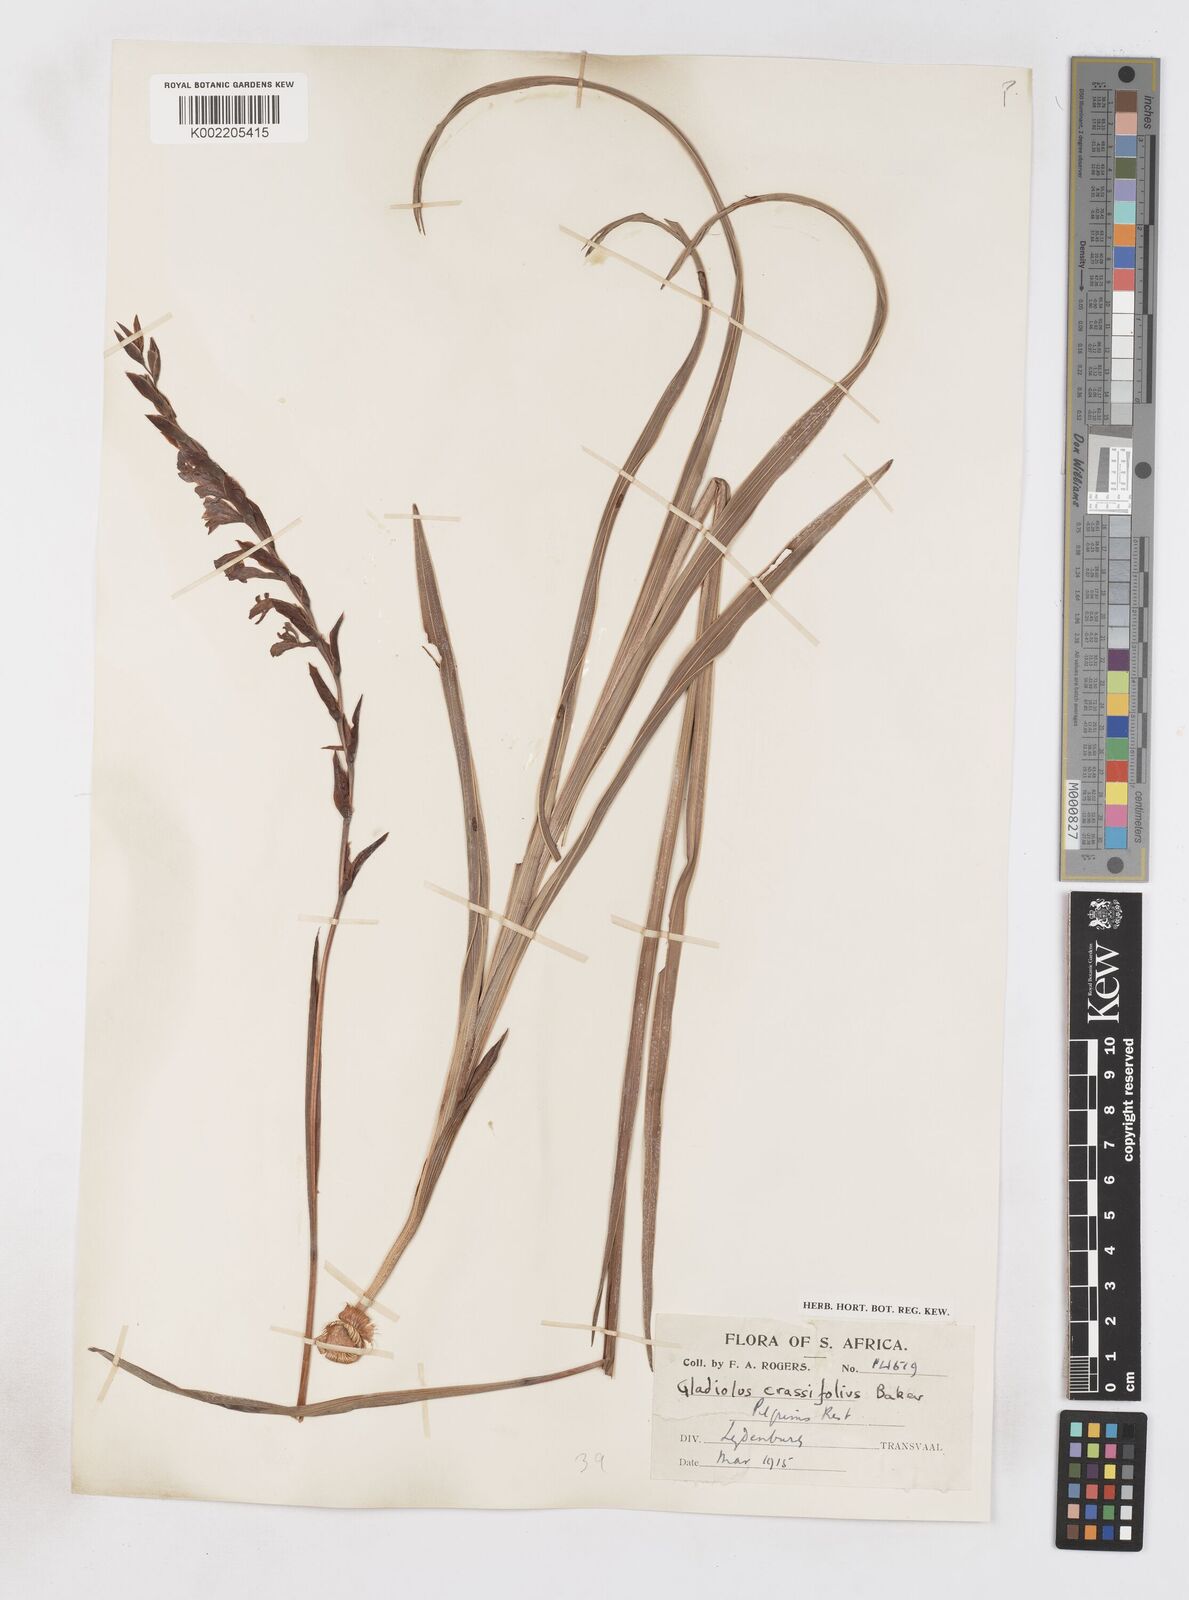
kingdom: Plantae
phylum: Tracheophyta
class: Liliopsida
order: Asparagales
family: Iridaceae
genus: Gladiolus
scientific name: Gladiolus densiflorus
